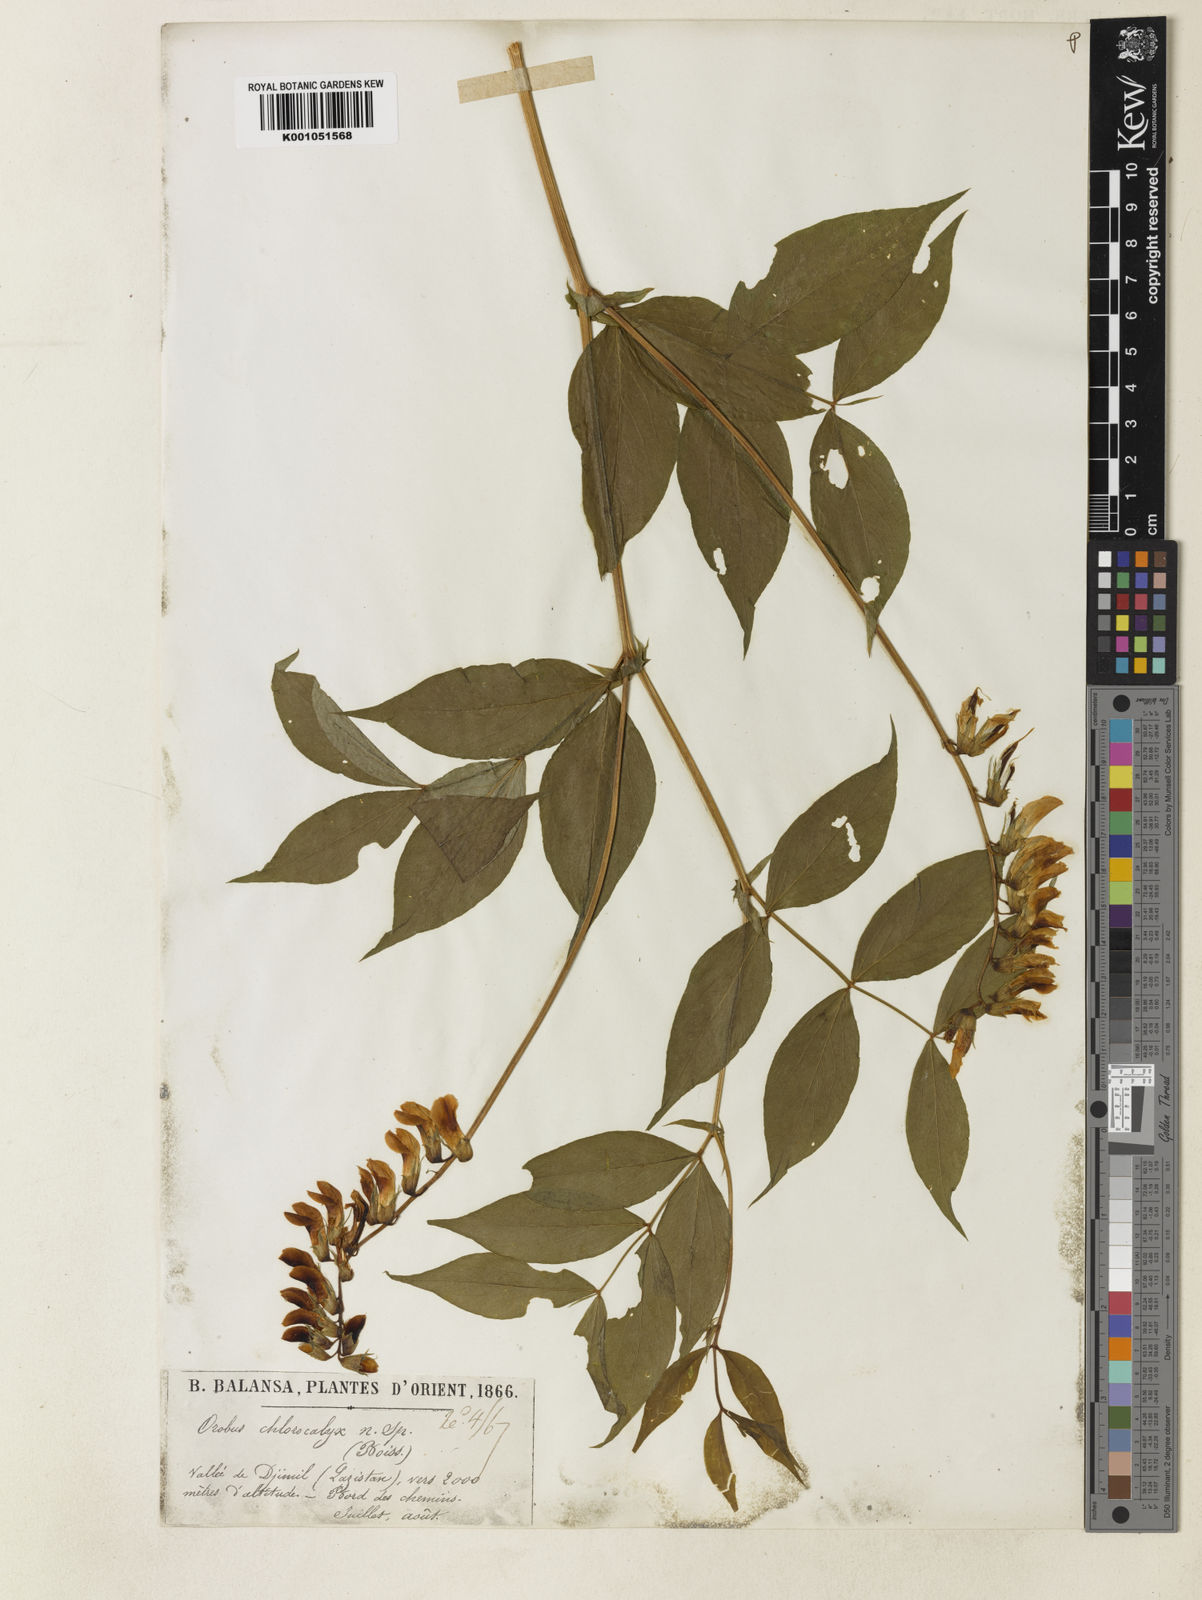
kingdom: Plantae
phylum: Tracheophyta
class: Magnoliopsida
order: Fabales
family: Fabaceae
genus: Lathyrus
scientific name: Lathyrus
